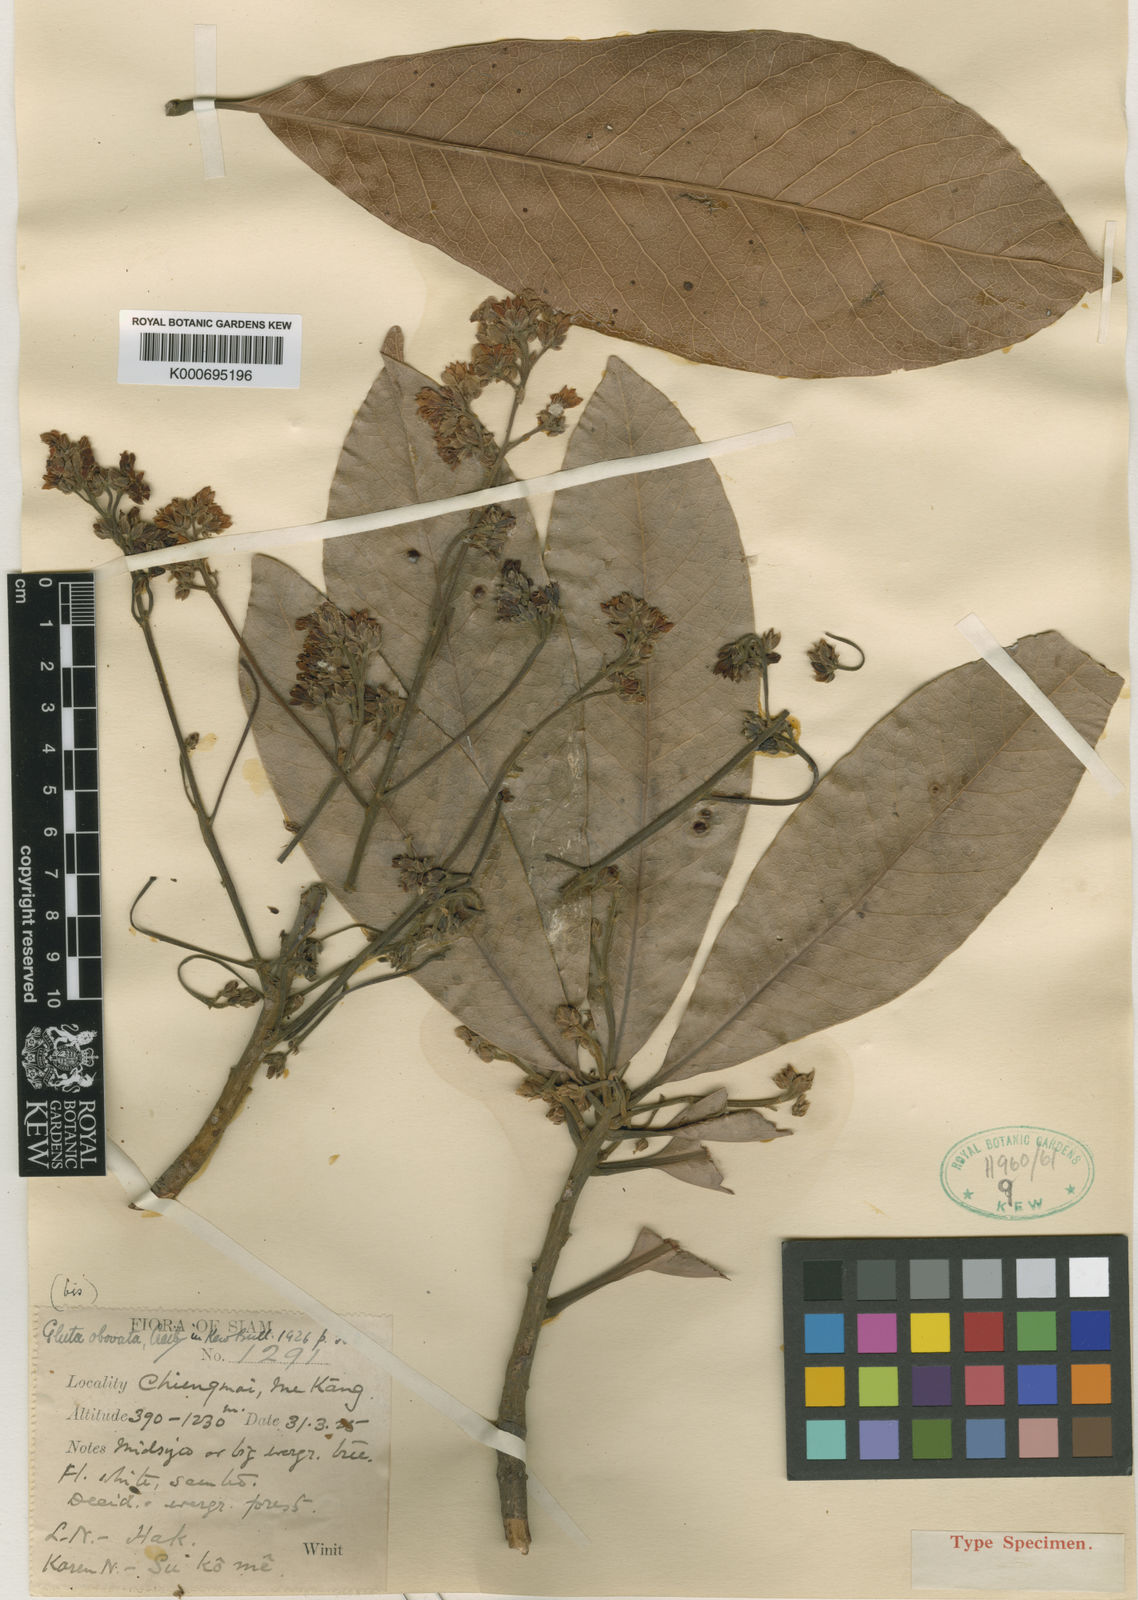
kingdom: Plantae
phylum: Tracheophyta
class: Magnoliopsida
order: Sapindales
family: Anacardiaceae
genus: Gluta
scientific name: Gluta obovata
